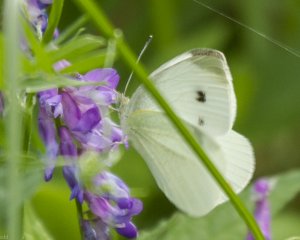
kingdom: Animalia
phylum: Arthropoda
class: Insecta
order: Lepidoptera
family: Pieridae
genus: Pieris
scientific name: Pieris rapae
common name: Cabbage White
